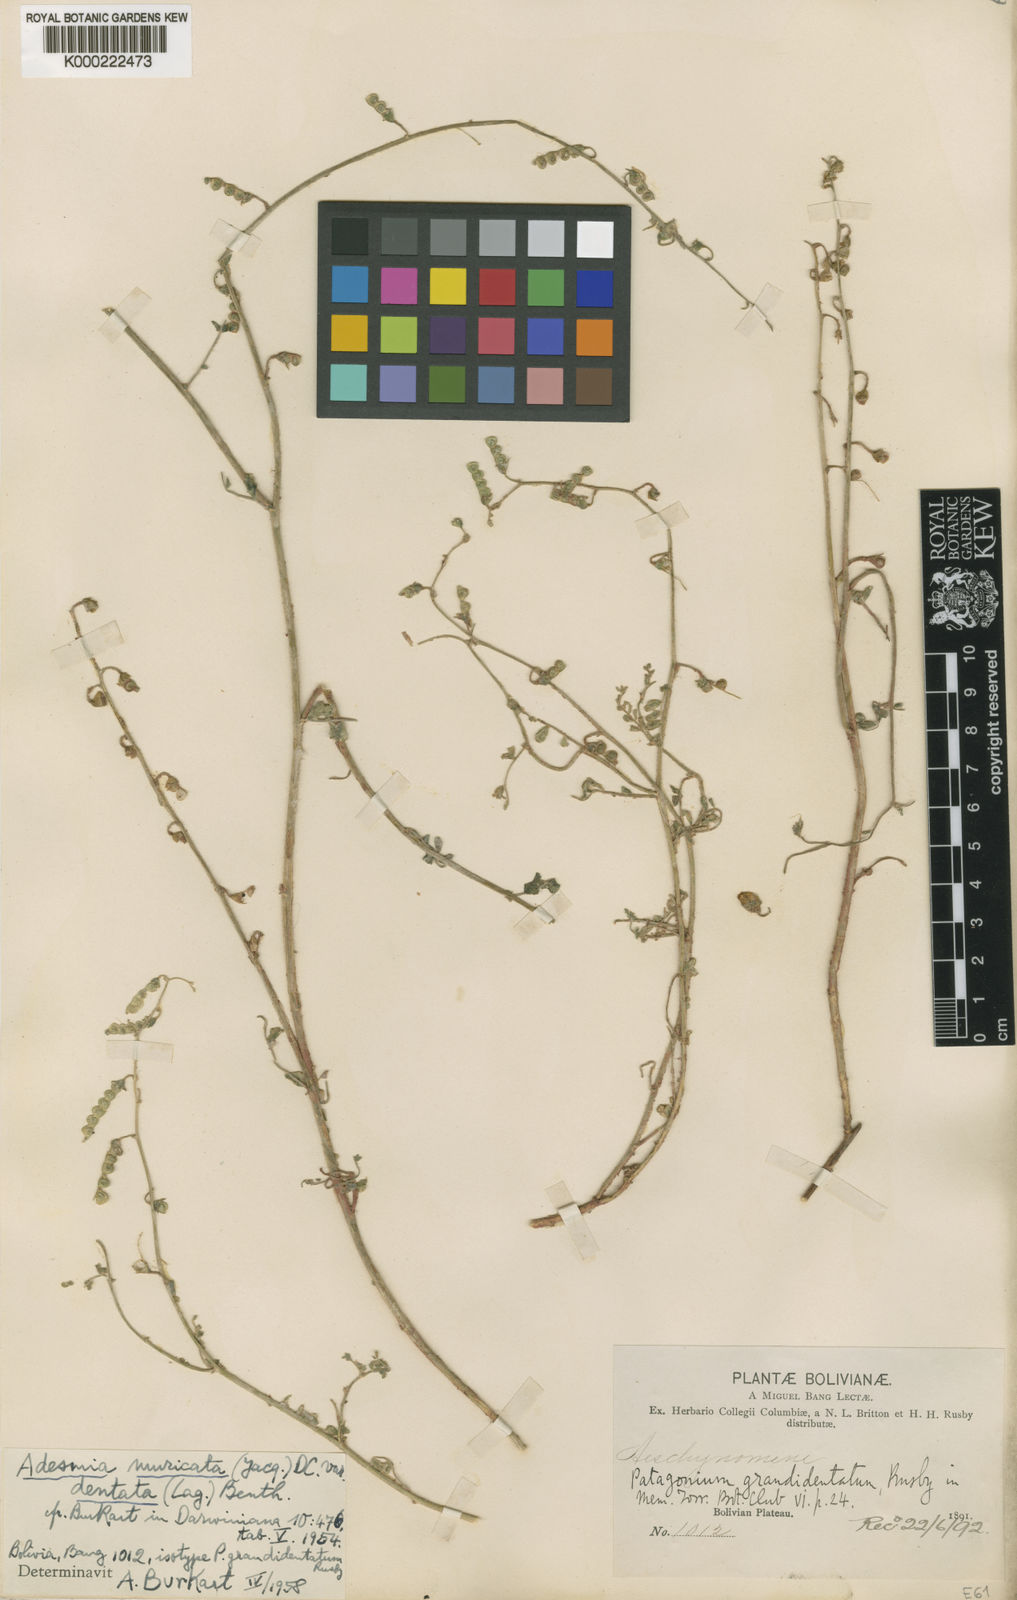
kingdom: Plantae
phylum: Tracheophyta
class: Magnoliopsida
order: Fabales
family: Fabaceae
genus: Adesmia
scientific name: Adesmia
